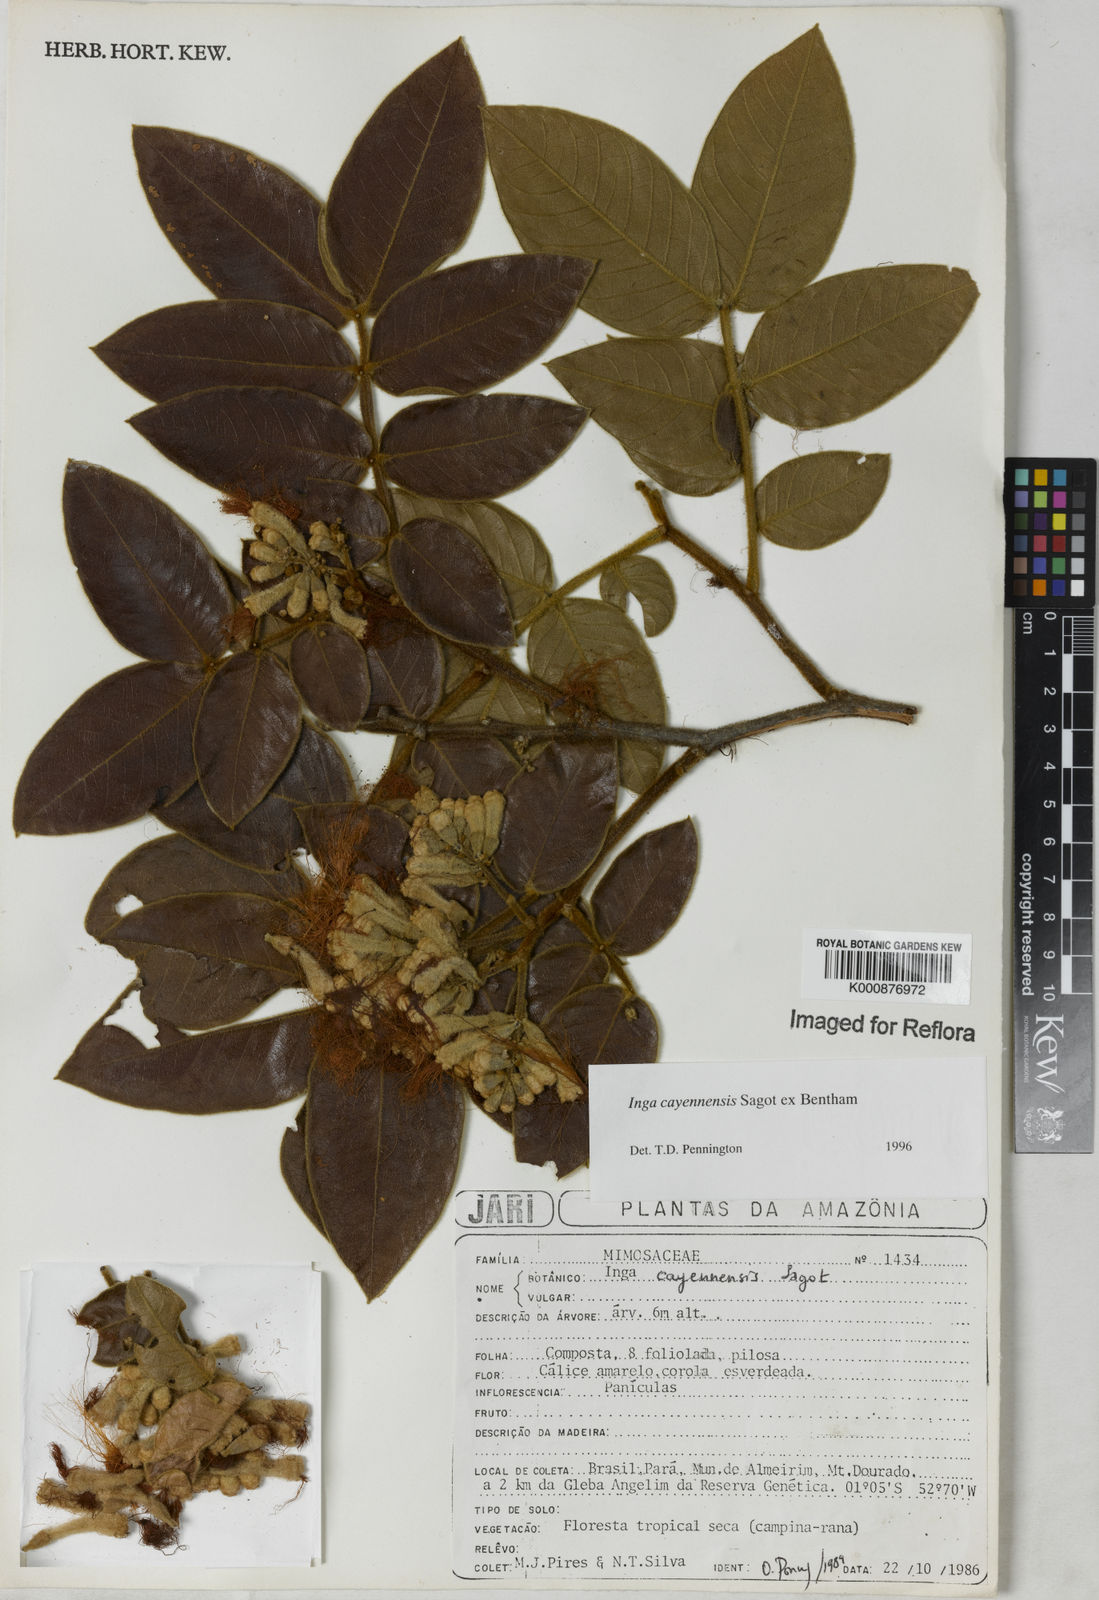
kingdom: Plantae
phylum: Tracheophyta
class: Magnoliopsida
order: Fabales
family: Fabaceae
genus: Inga
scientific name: Inga cayennensis
